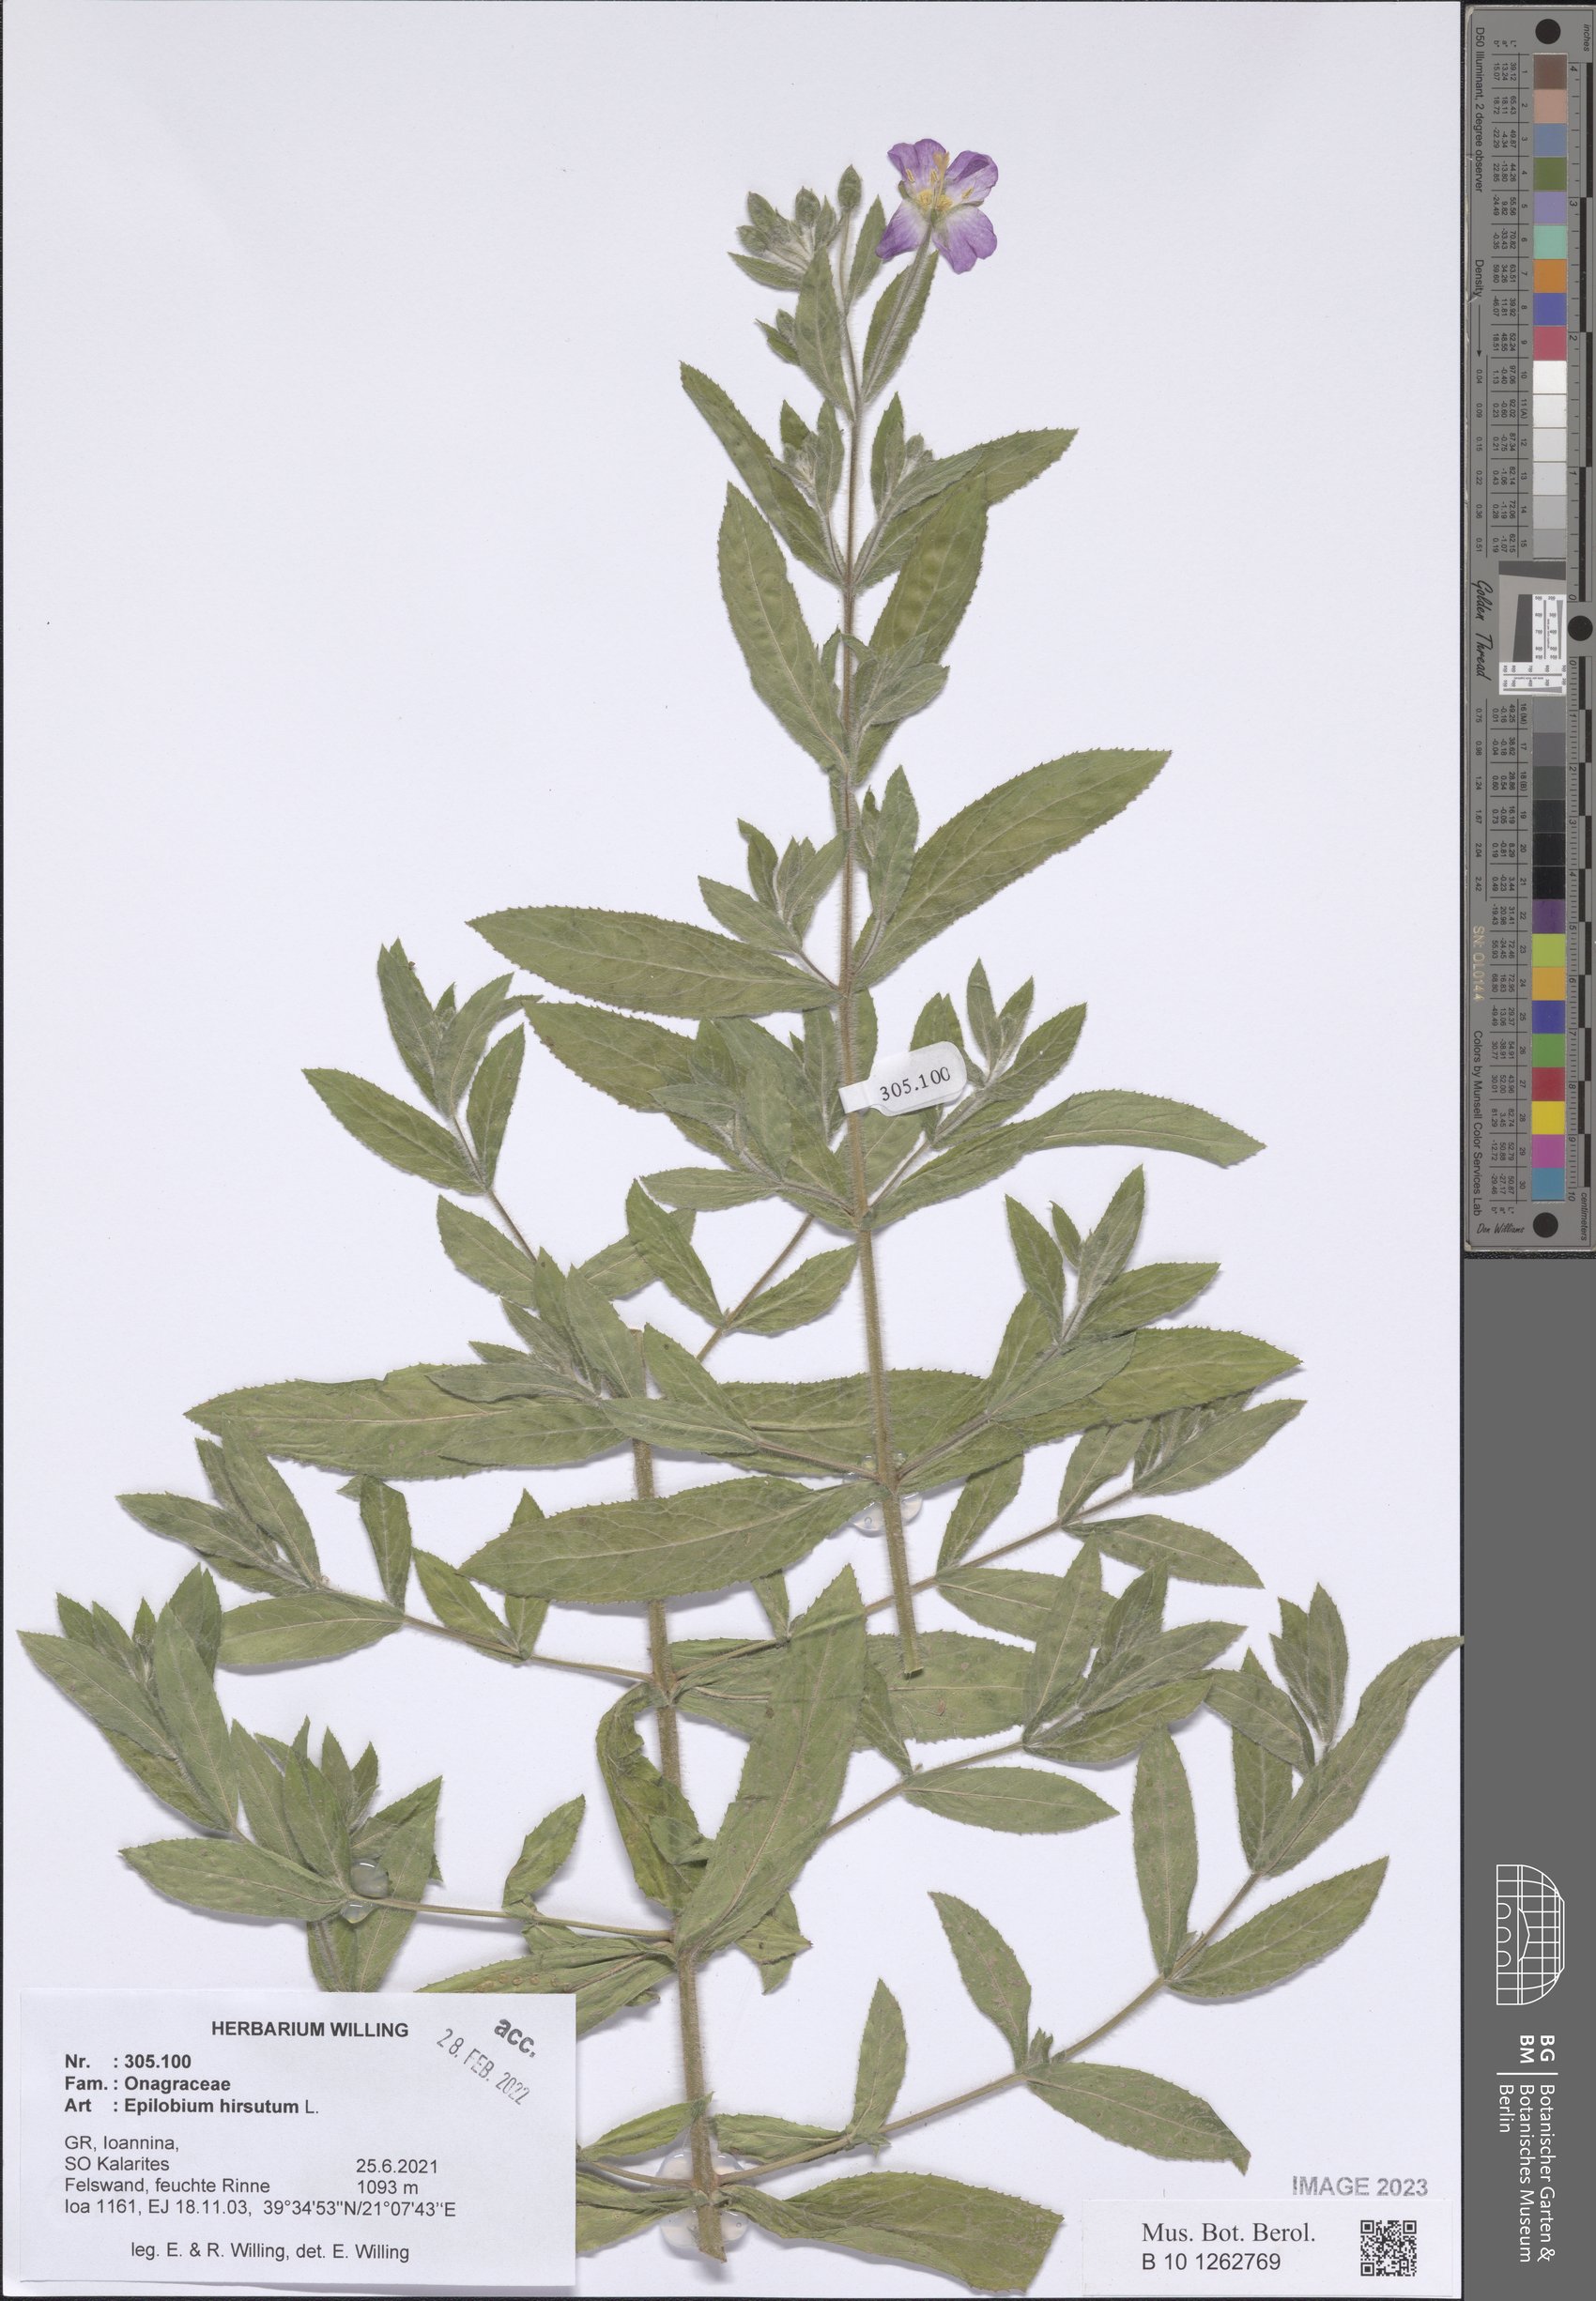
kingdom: Plantae
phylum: Tracheophyta
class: Magnoliopsida
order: Myrtales
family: Onagraceae
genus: Epilobium
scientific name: Epilobium hirsutum
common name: Great willowherb
